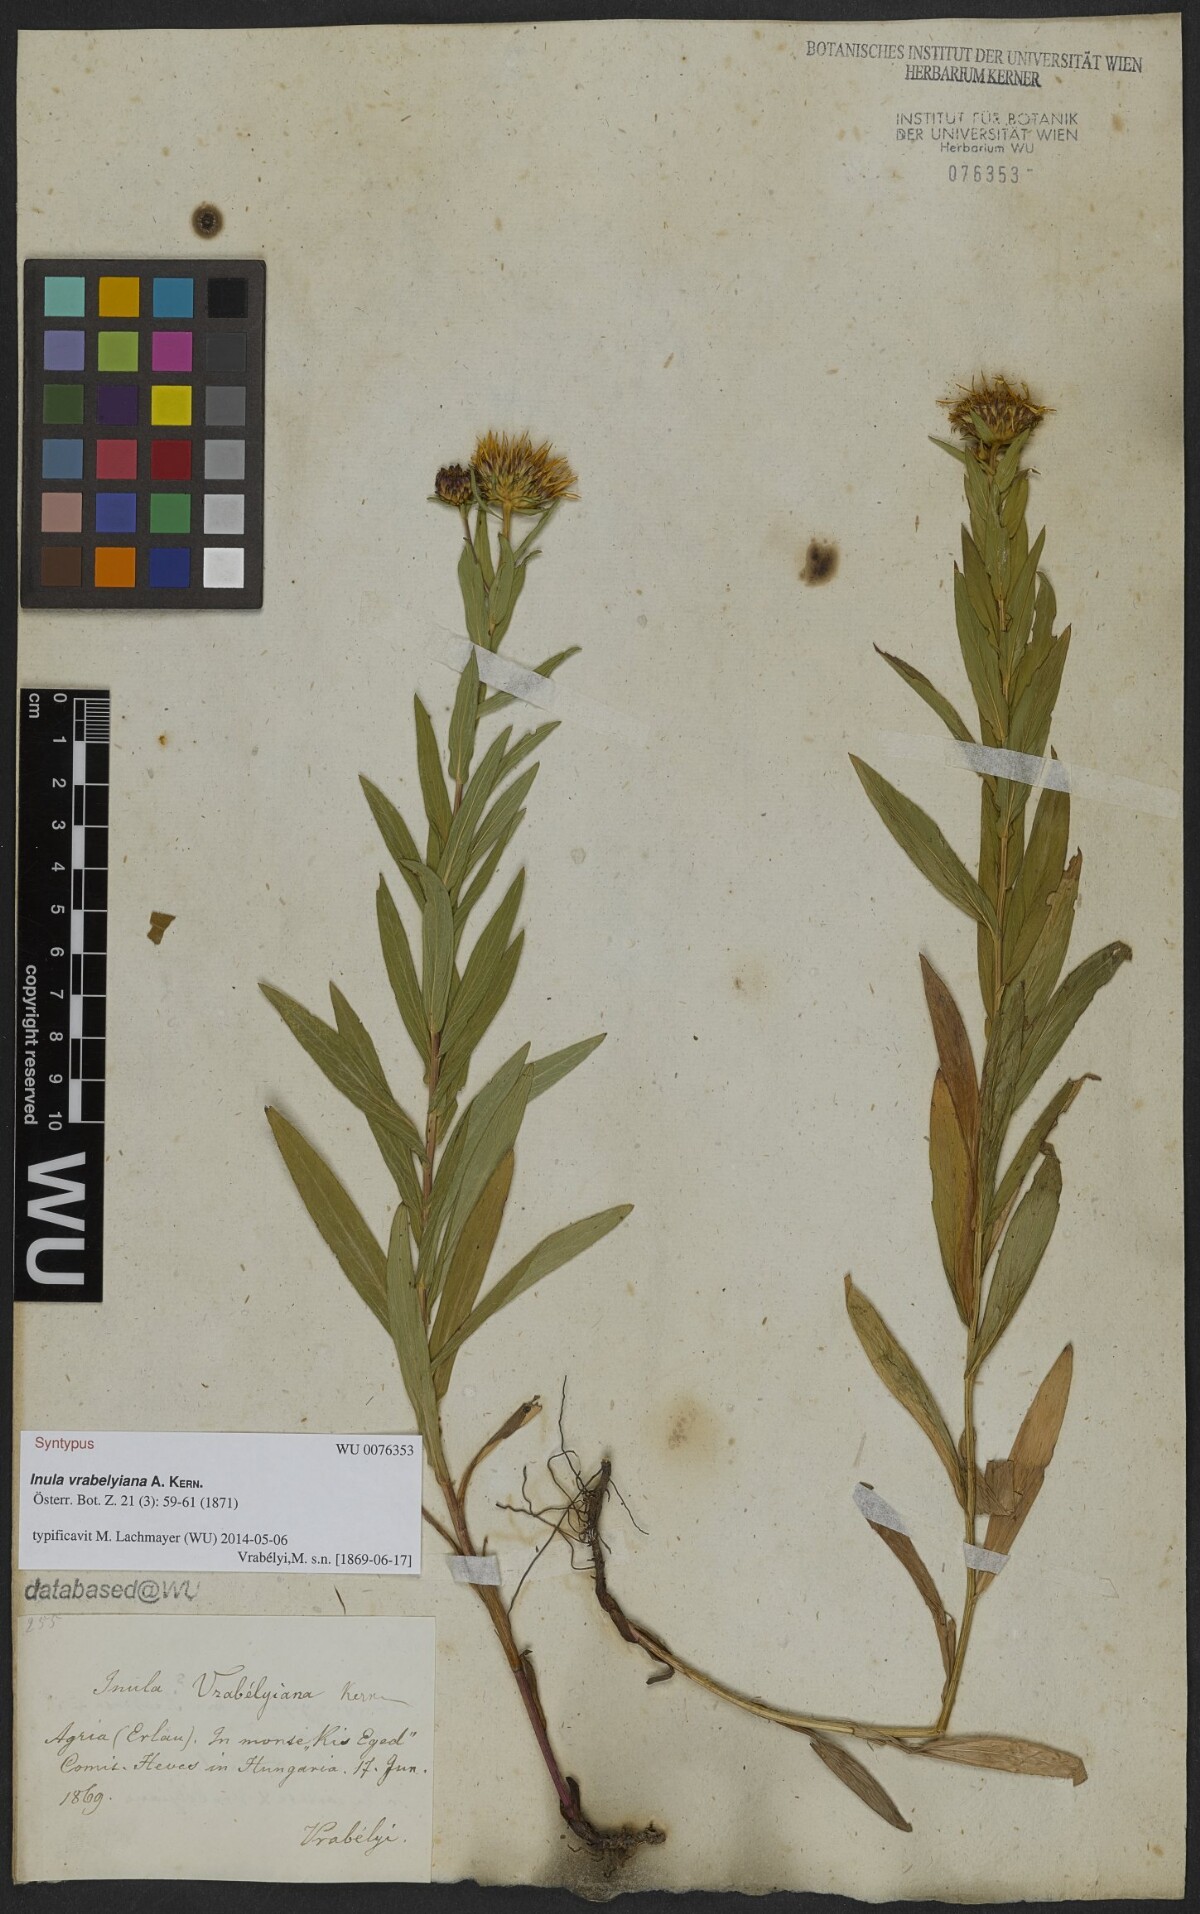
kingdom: Plantae
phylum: Tracheophyta
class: Magnoliopsida
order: Asterales
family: Asteraceae
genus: Pentanema
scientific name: Pentanema strictum
